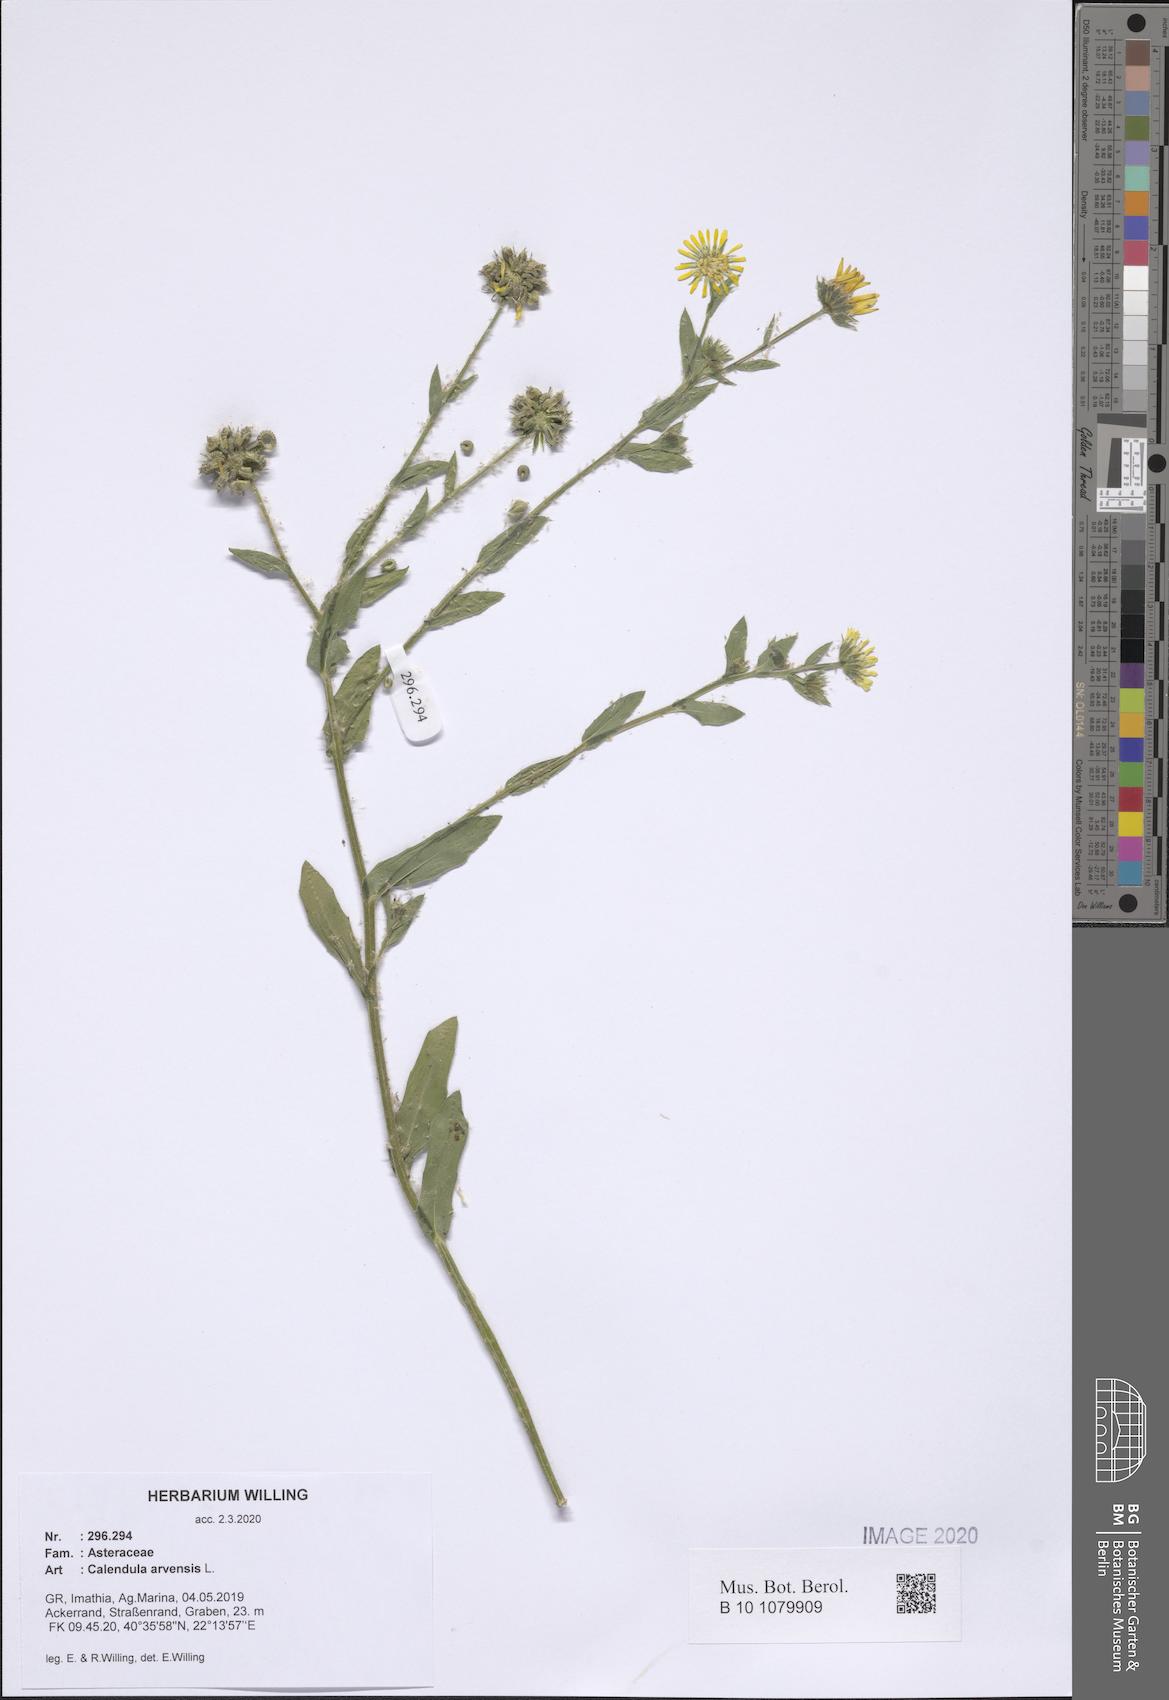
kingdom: Plantae
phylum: Tracheophyta
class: Magnoliopsida
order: Asterales
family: Asteraceae
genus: Calendula
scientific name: Calendula arvensis
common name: Field marigold
